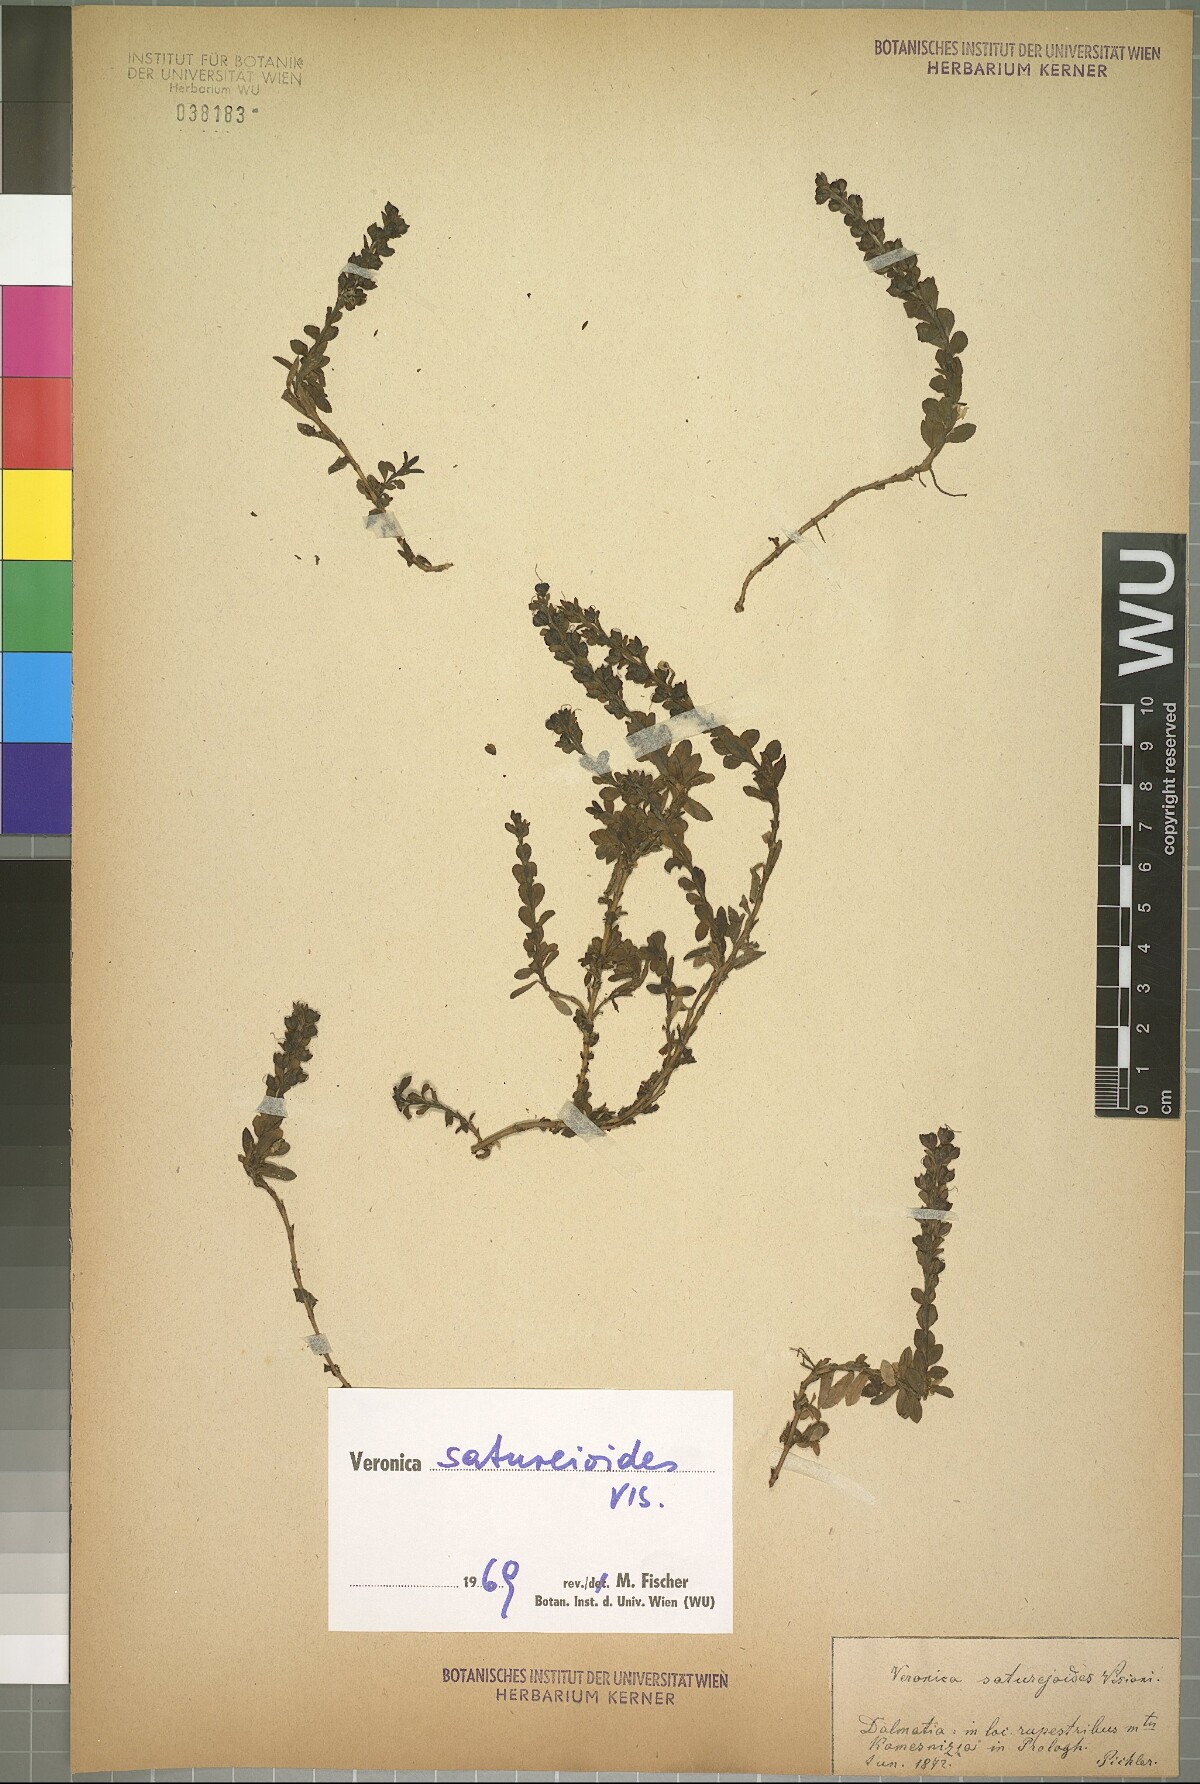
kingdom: Plantae
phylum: Tracheophyta
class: Magnoliopsida
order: Lamiales
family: Plantaginaceae
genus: Veronica
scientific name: Veronica saturejoides
